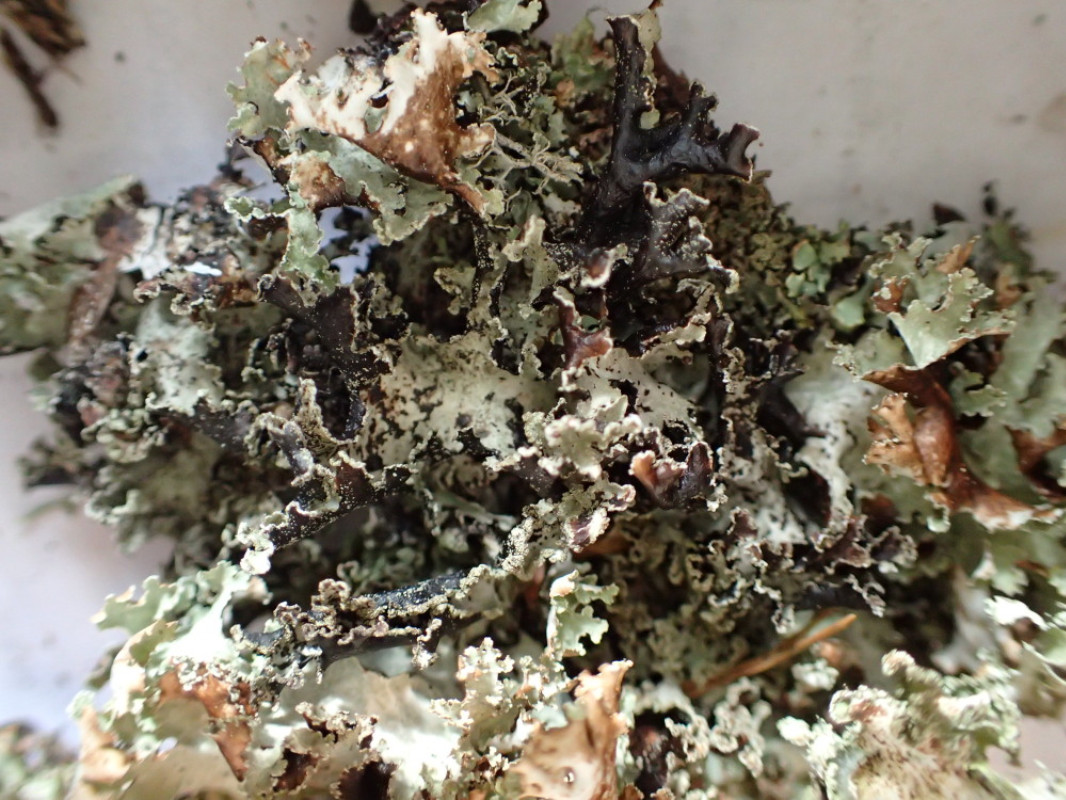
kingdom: Fungi
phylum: Ascomycota
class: Lecanoromycetes
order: Lecanorales
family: Parmeliaceae
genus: Platismatia
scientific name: Platismatia glauca
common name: blågrå papirlav
